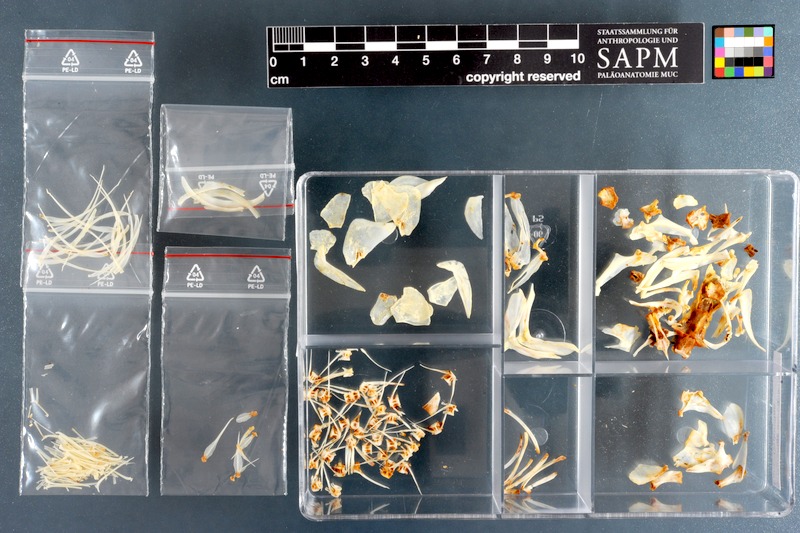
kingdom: Animalia
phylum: Chordata
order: Cypriniformes
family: Cyprinidae
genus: Raiamas
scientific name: Raiamas senegalensis
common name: Senegal minnow
